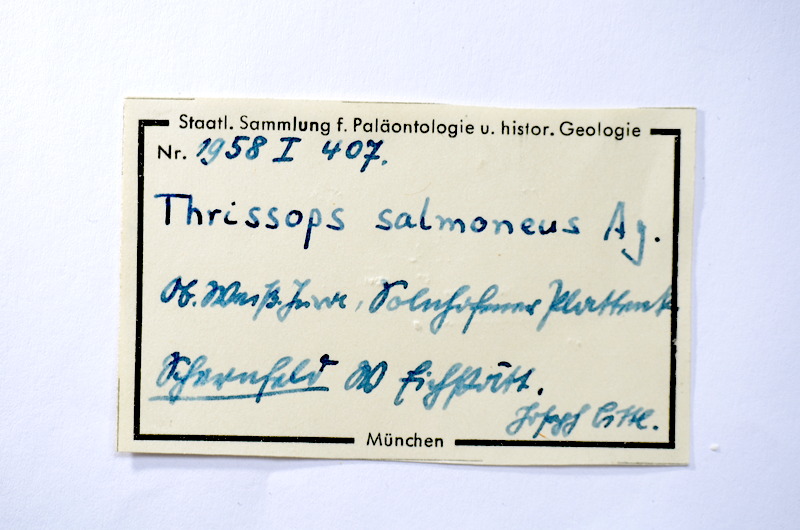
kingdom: Animalia
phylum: Chordata
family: Allothrissopidae
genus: Allothrissops
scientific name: Allothrissops salmoneus
